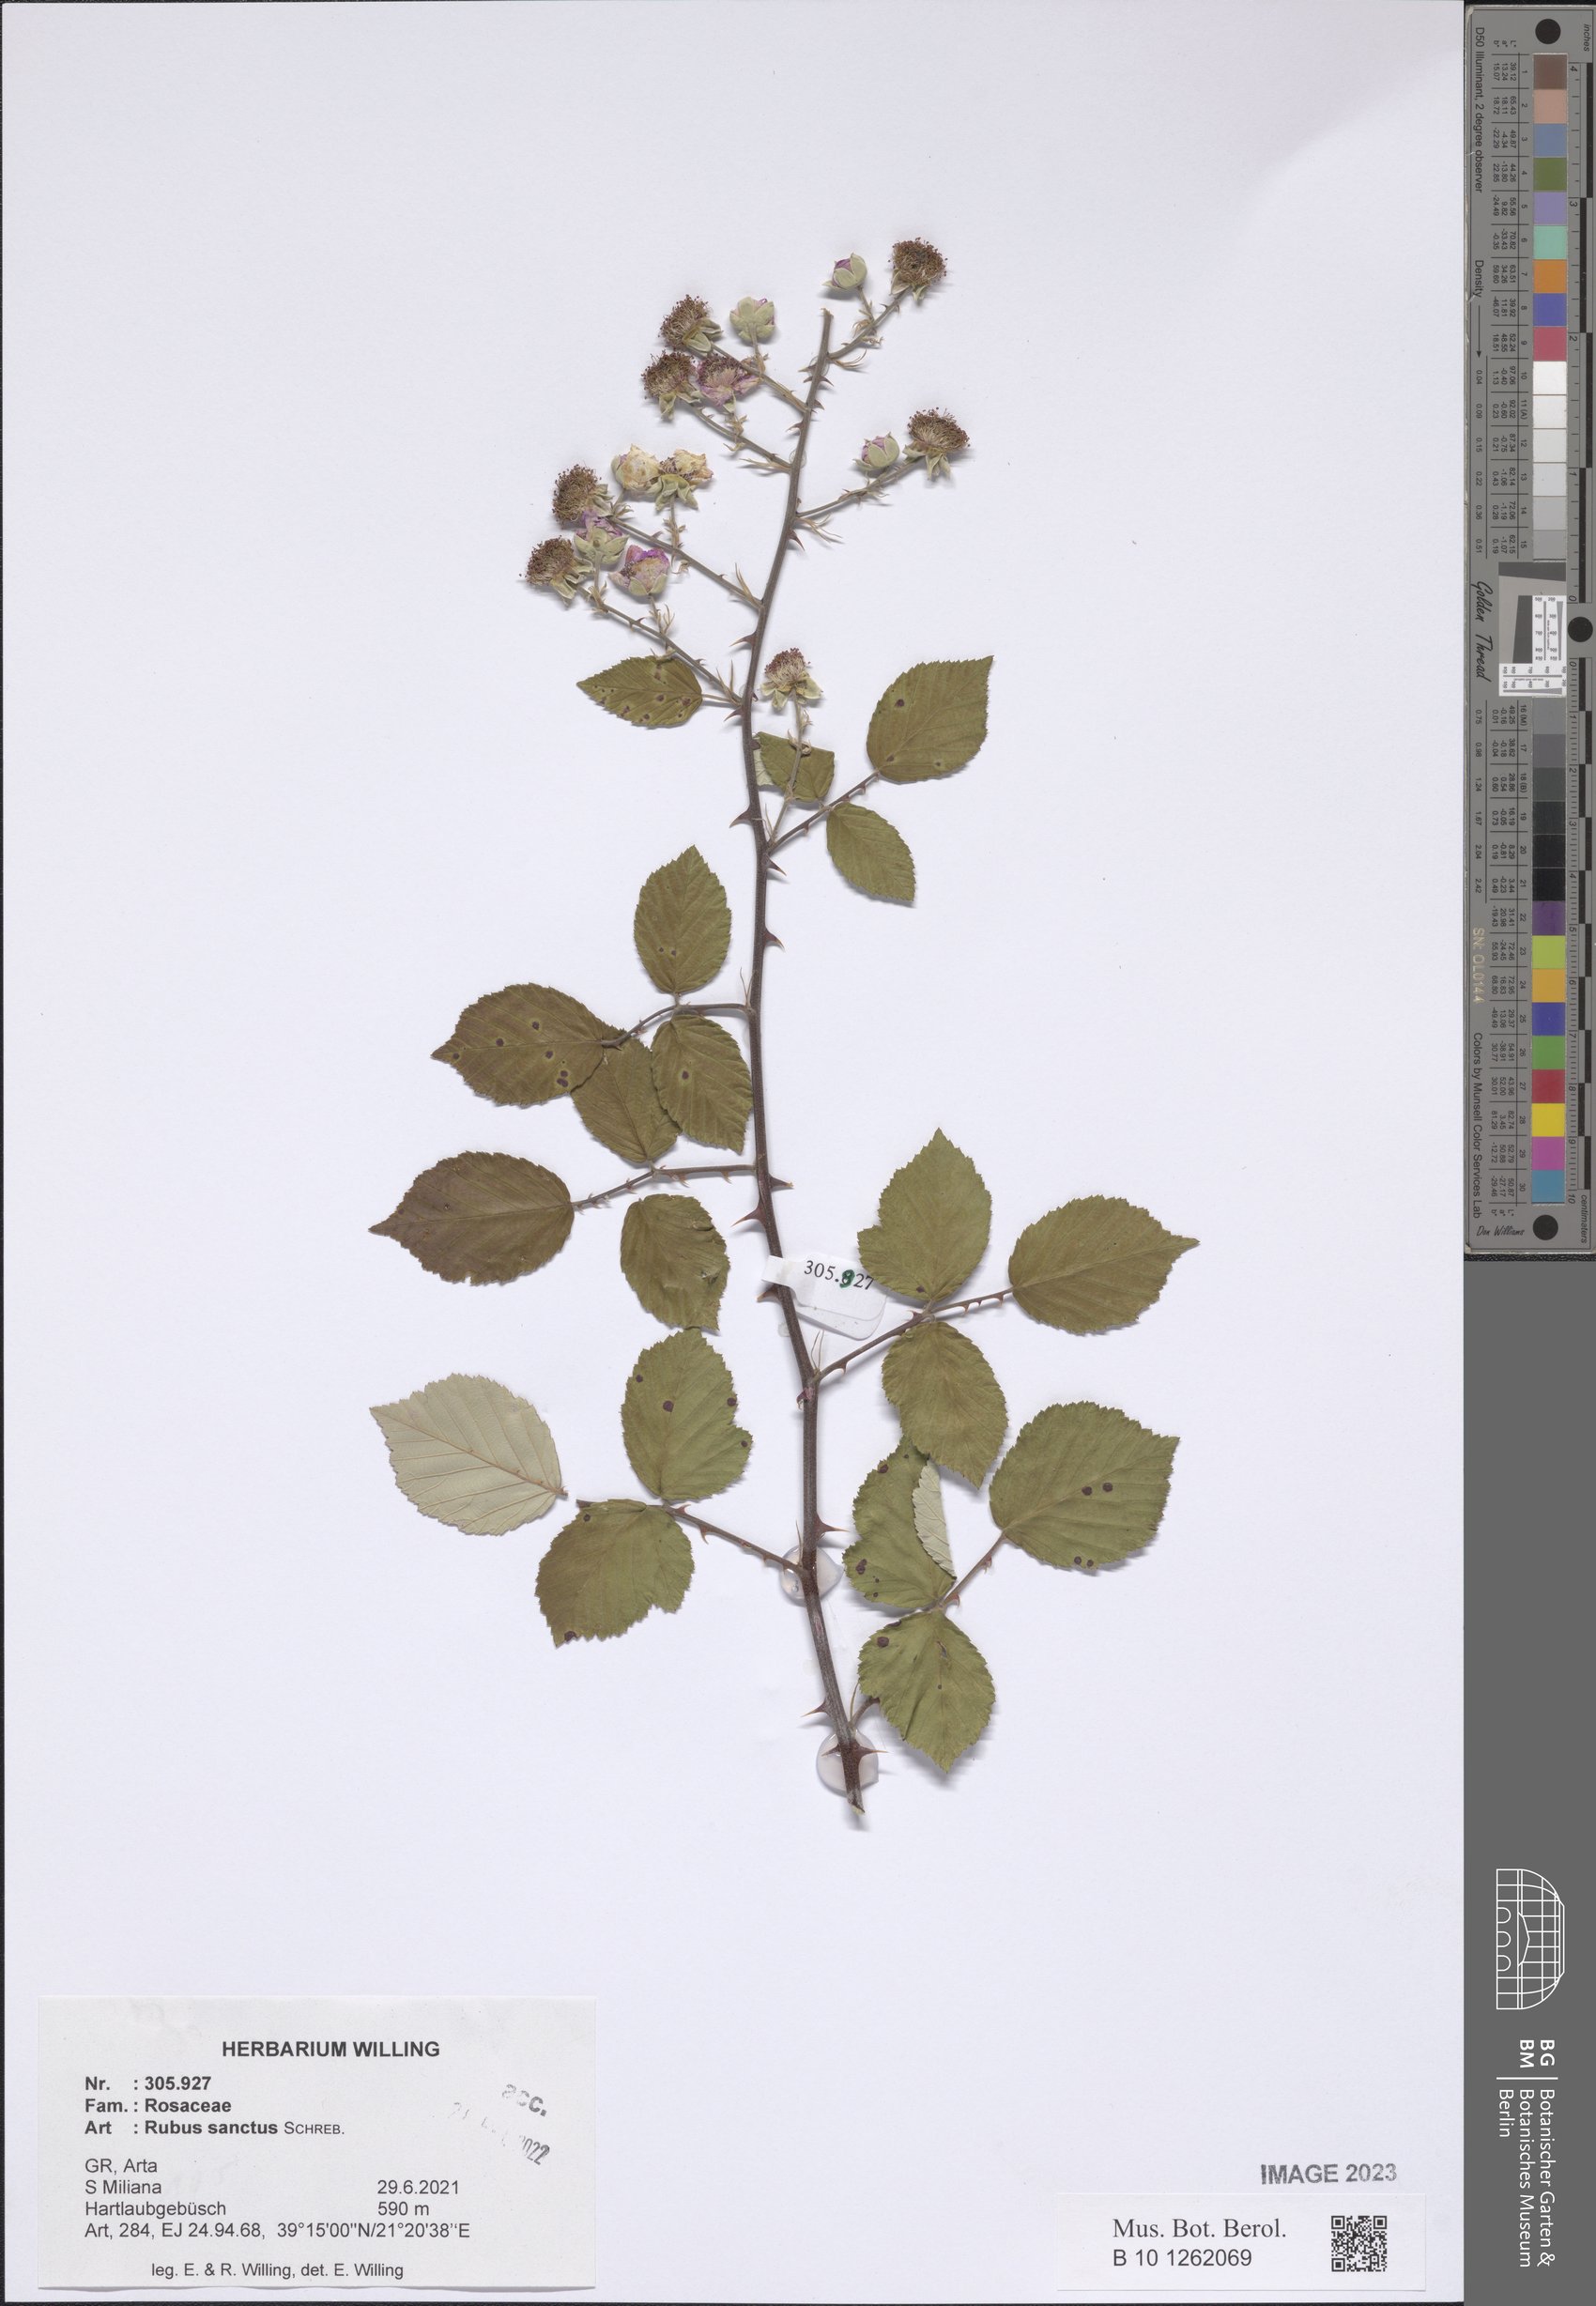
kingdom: Plantae
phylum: Tracheophyta
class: Magnoliopsida
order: Rosales
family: Rosaceae
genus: Rubus
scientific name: Rubus sanctus
